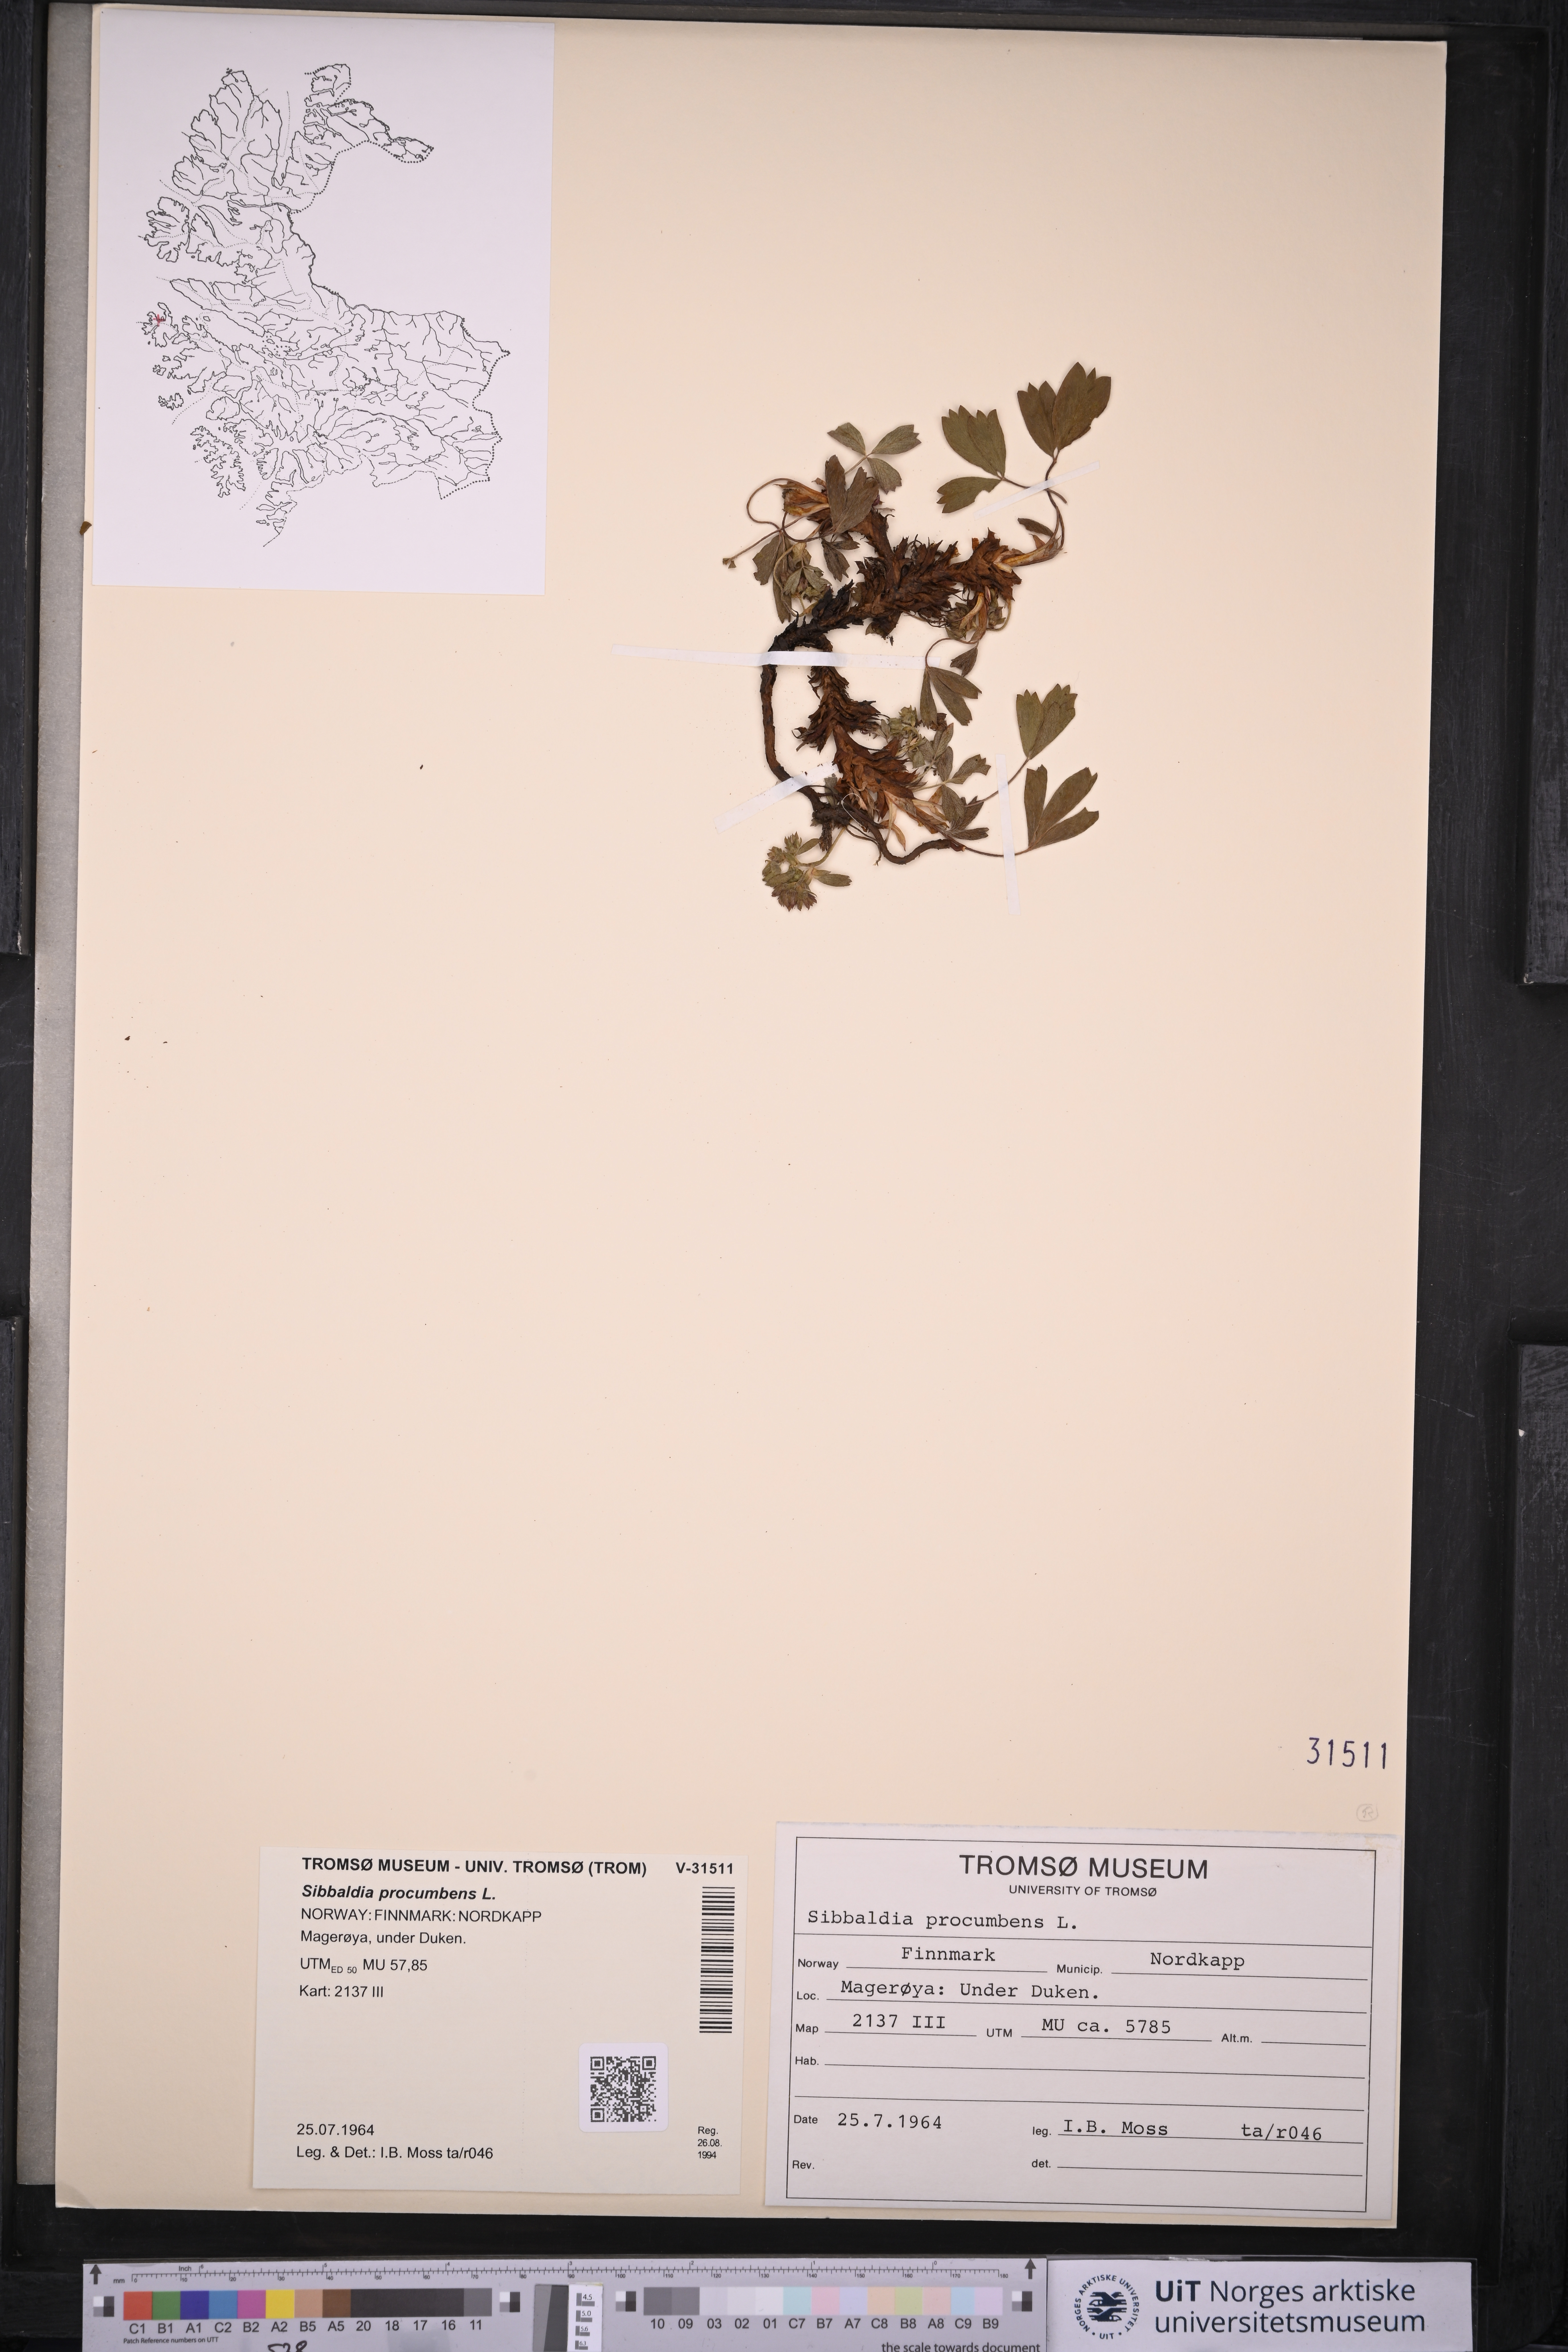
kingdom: Plantae
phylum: Tracheophyta
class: Magnoliopsida
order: Rosales
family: Rosaceae
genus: Sibbaldia
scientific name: Sibbaldia procumbens
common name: Creeping sibbaldia
